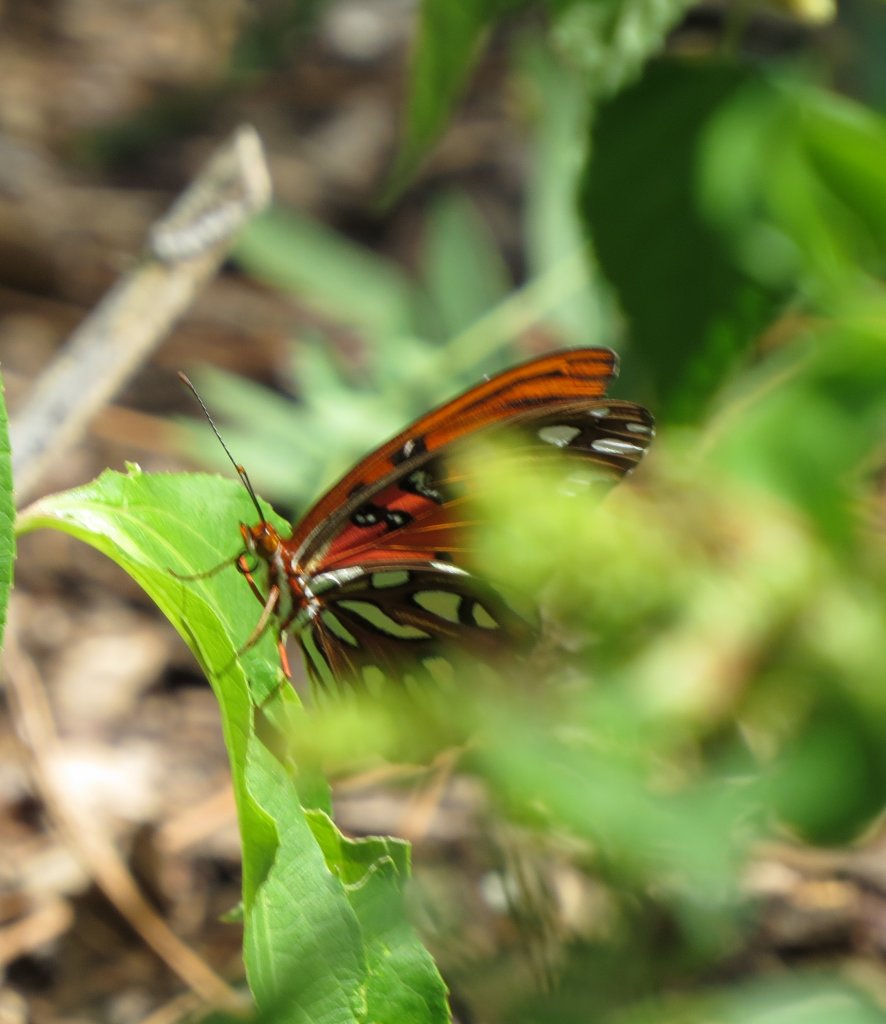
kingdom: Animalia
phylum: Arthropoda
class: Insecta
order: Lepidoptera
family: Nymphalidae
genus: Dione
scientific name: Dione vanillae
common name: Gulf Fritillary
